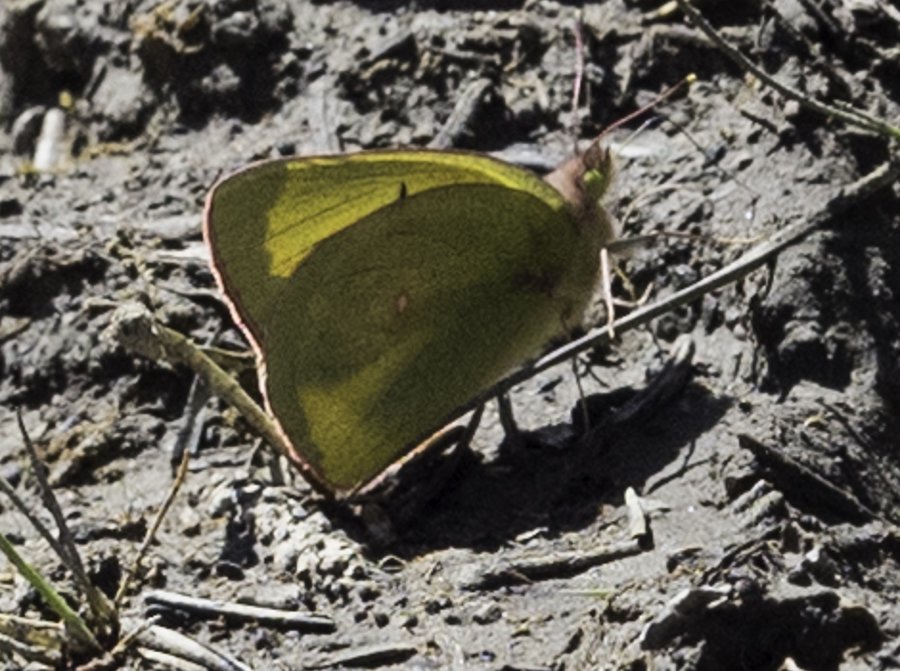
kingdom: Animalia
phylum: Arthropoda
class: Insecta
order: Lepidoptera
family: Pieridae
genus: Colias
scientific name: Colias interior
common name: Pink-edged Sulphur
